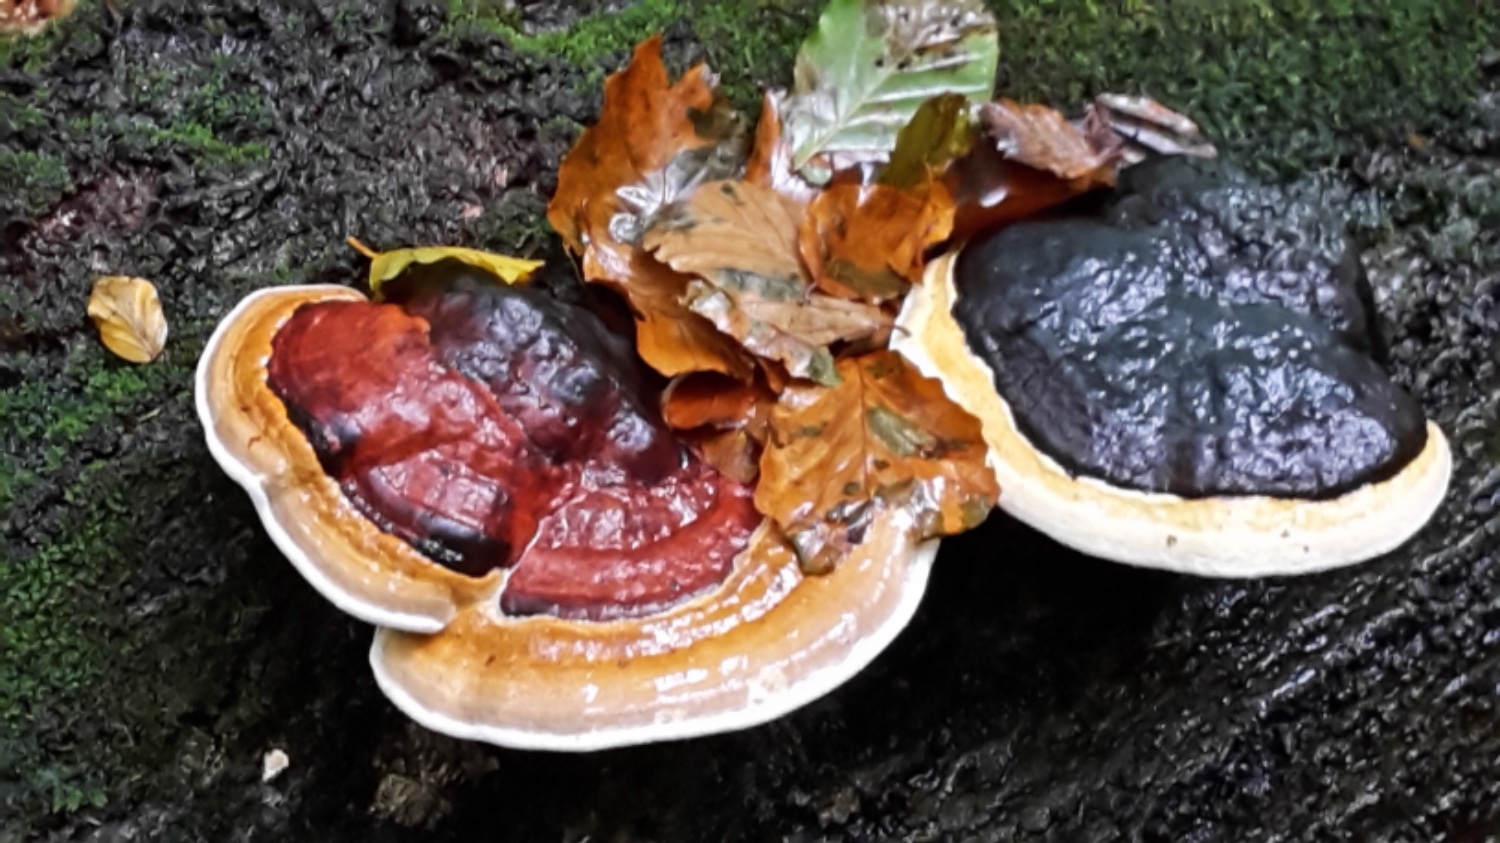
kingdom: Fungi
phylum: Basidiomycota
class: Agaricomycetes
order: Polyporales
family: Fomitopsidaceae
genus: Fomitopsis
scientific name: Fomitopsis pinicola
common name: randbæltet hovporesvamp
